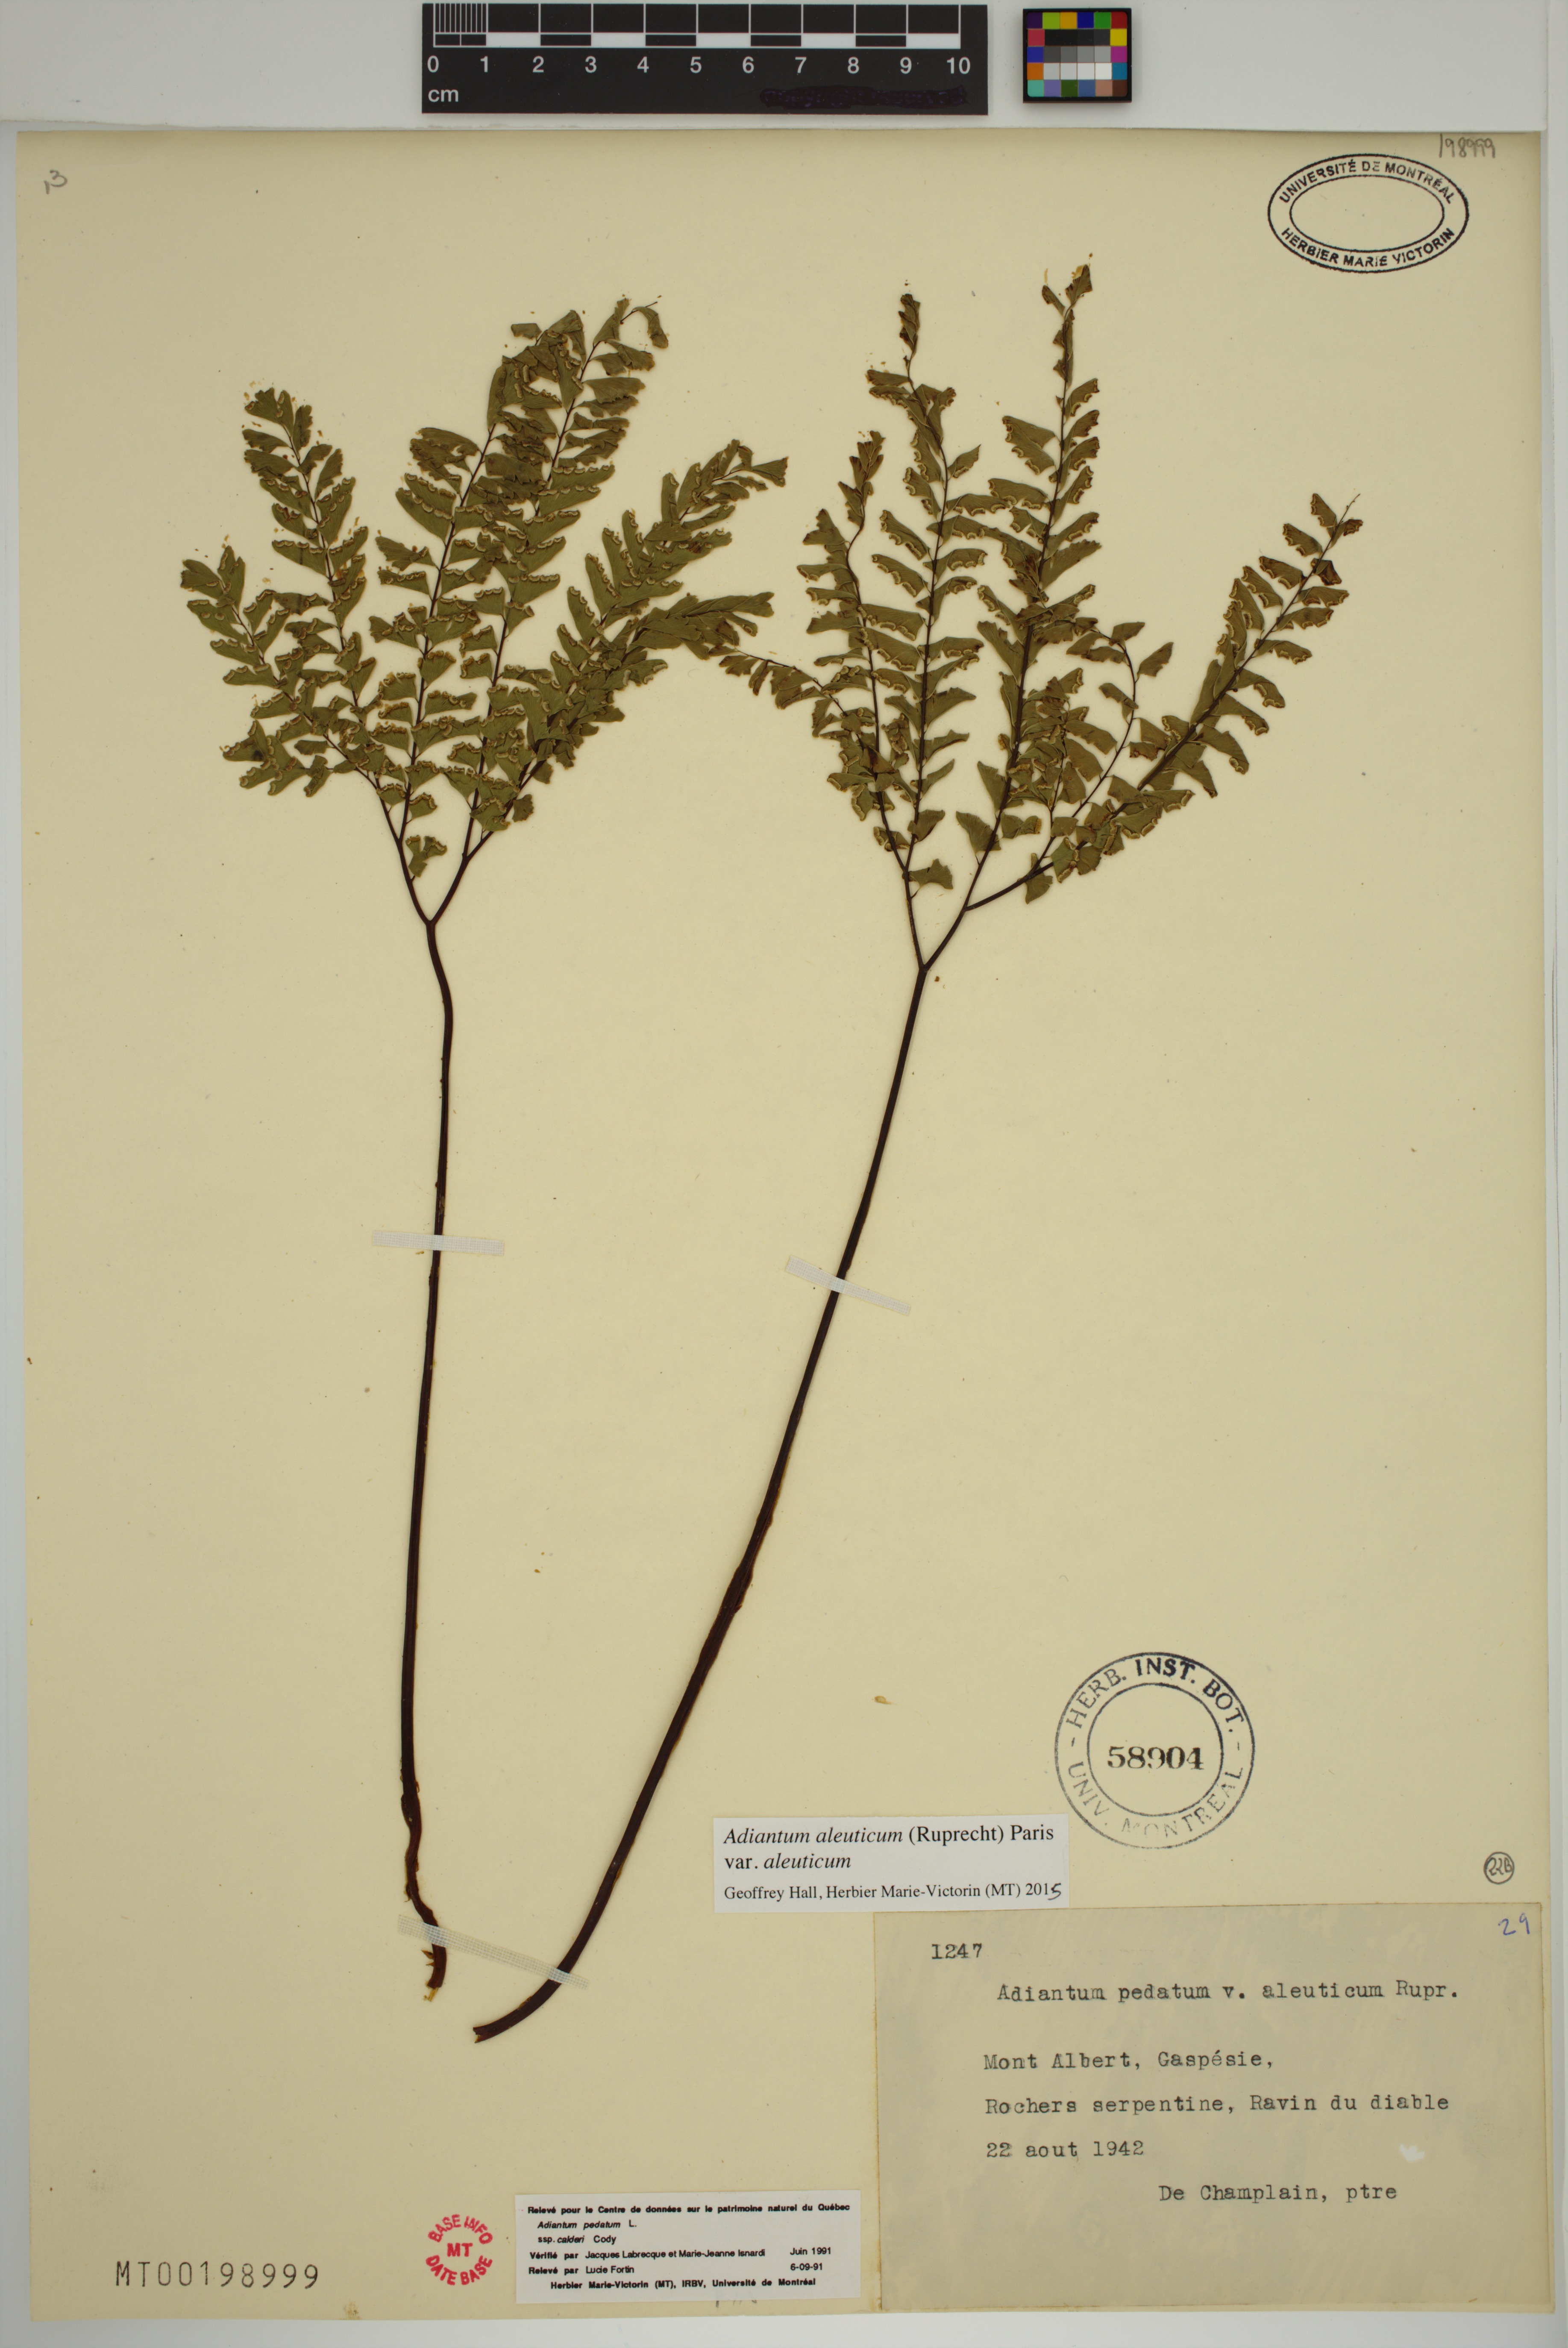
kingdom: Plantae
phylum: Tracheophyta
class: Polypodiopsida
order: Polypodiales
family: Pteridaceae
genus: Adiantum
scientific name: Adiantum aleuticum
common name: Aleutian maidenhair fern
